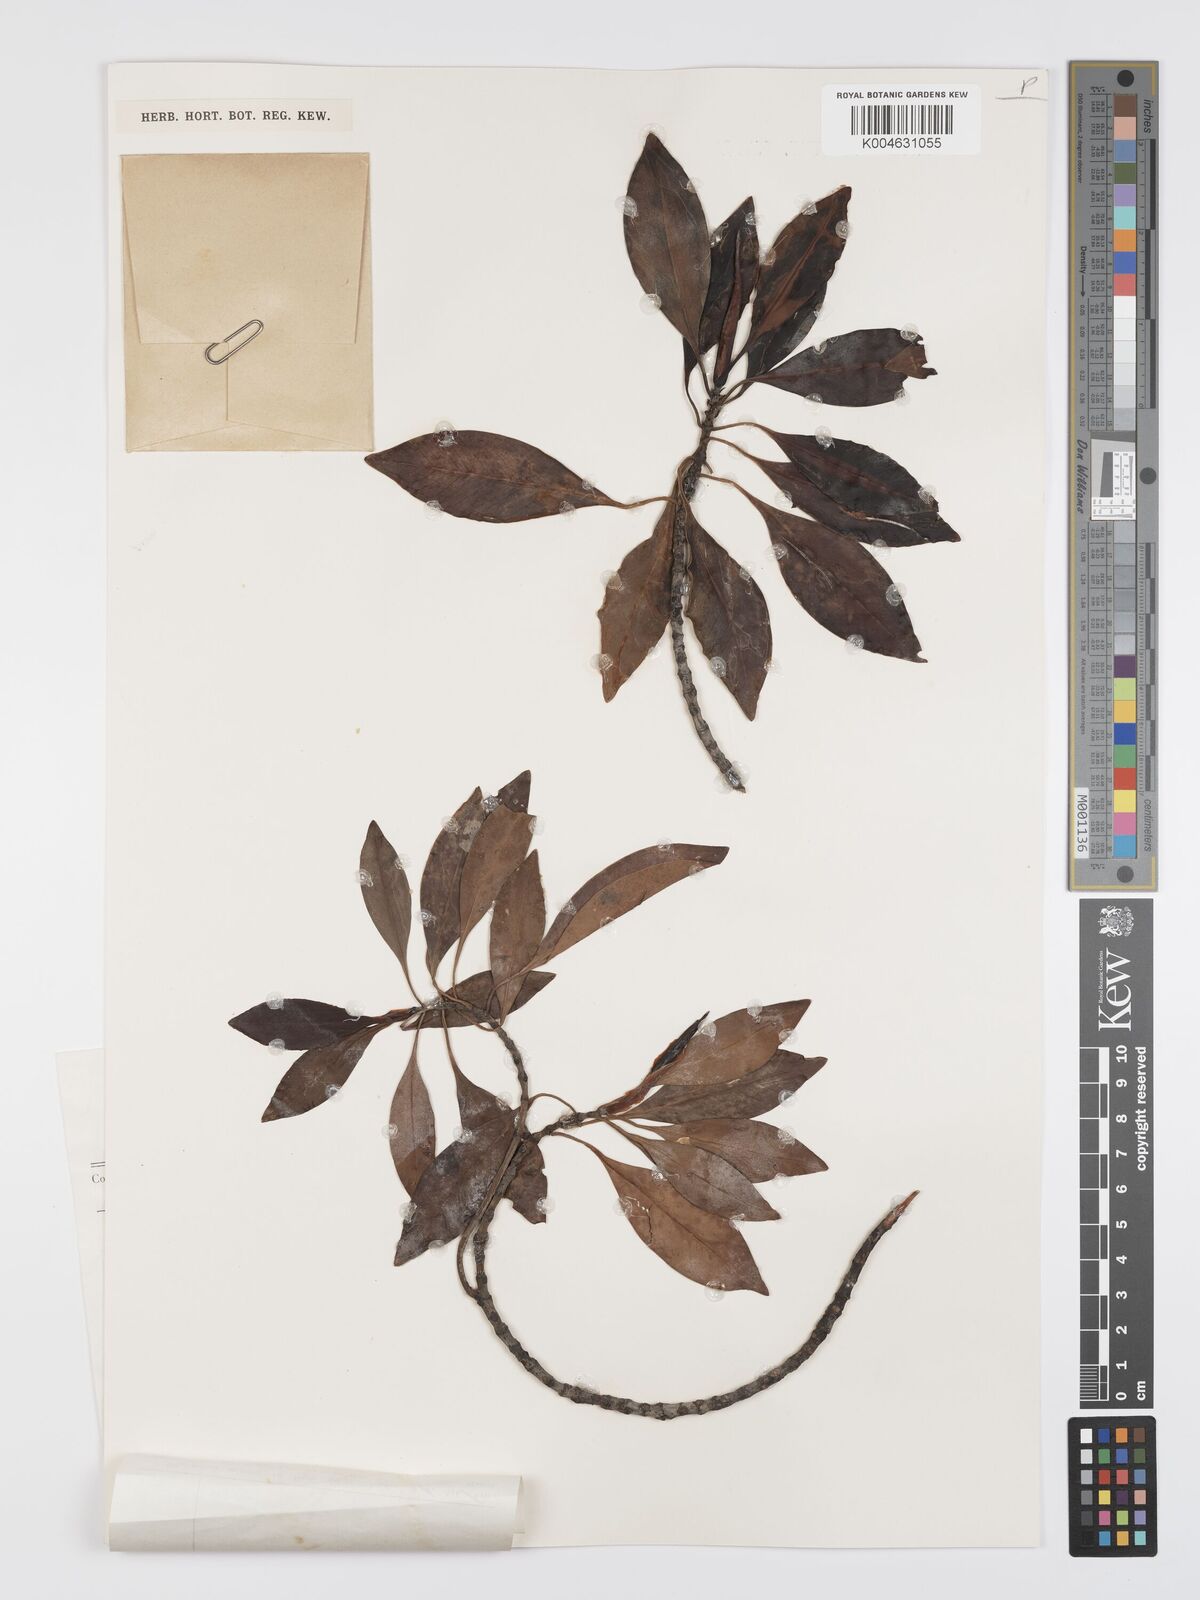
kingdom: Plantae
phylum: Tracheophyta
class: Magnoliopsida
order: Malpighiales
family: Rhizophoraceae
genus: Bruguiera
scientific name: Bruguiera parviflora
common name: Smallflower bruguiera
